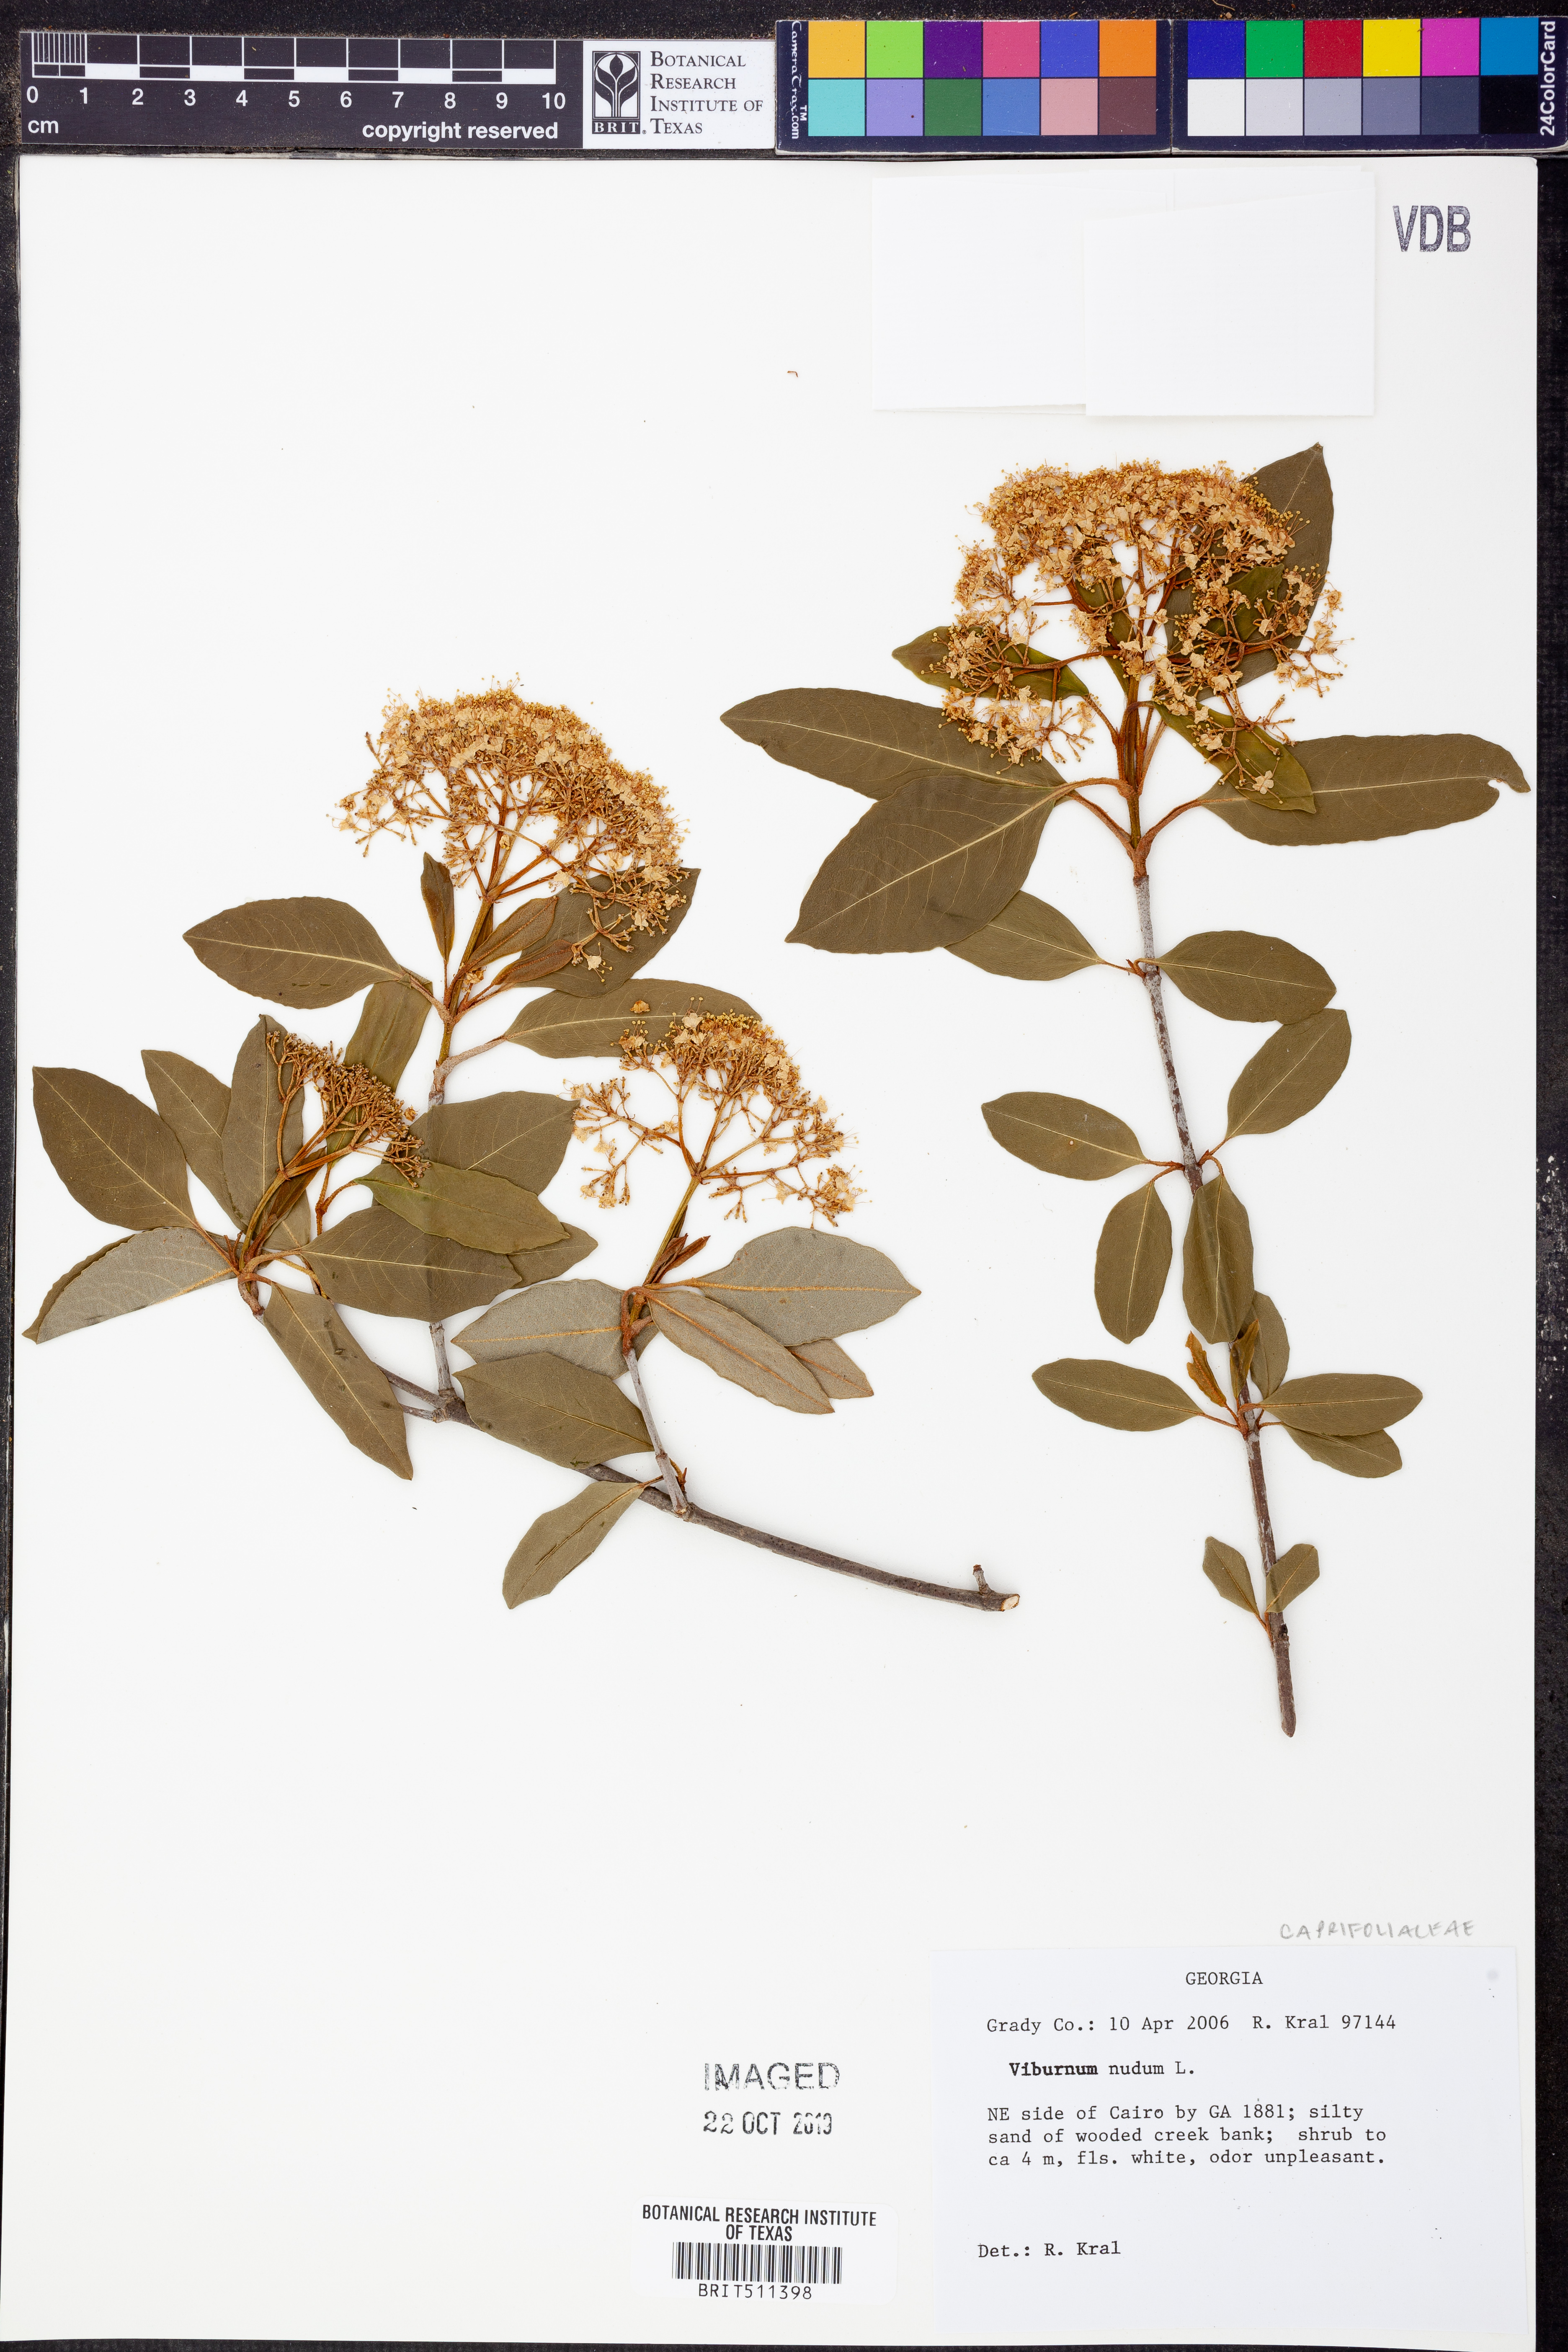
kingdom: Plantae
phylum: Tracheophyta
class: Magnoliopsida
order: Dipsacales
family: Viburnaceae
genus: Viburnum
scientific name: Viburnum nudum
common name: Possum haw
